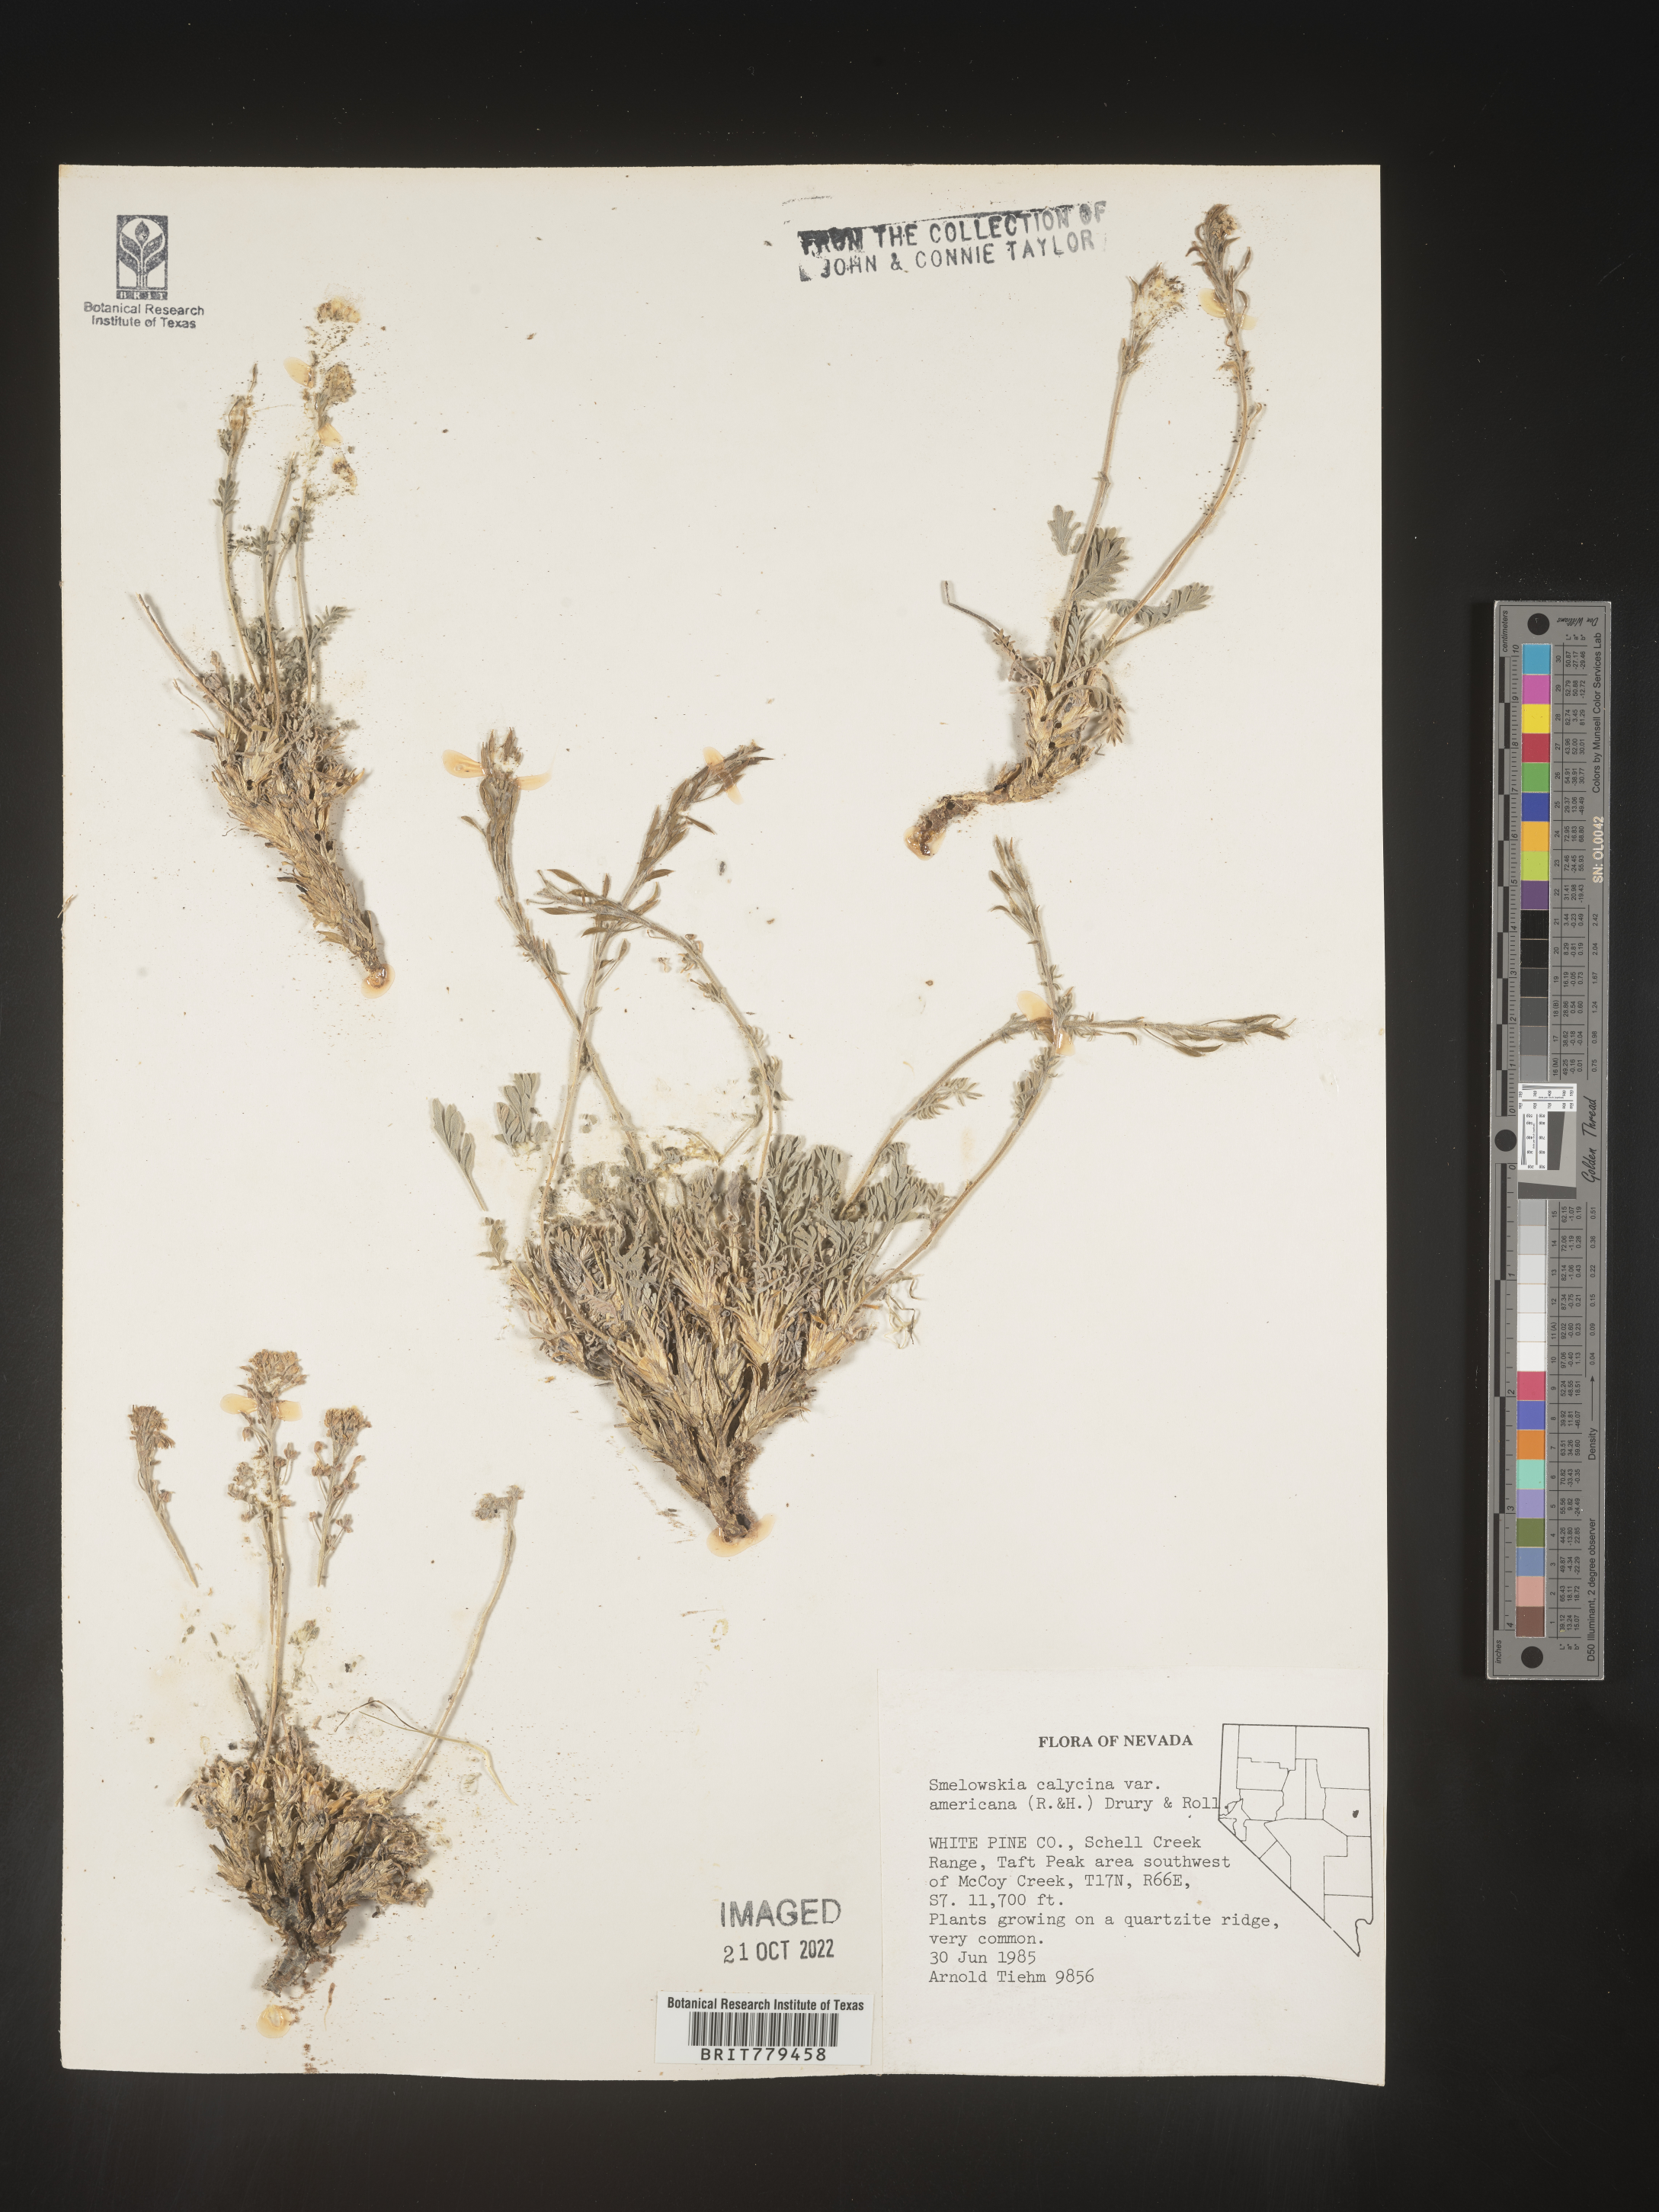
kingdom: Plantae
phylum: Tracheophyta
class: Magnoliopsida
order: Brassicales
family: Brassicaceae
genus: Smelowskia
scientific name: Smelowskia
